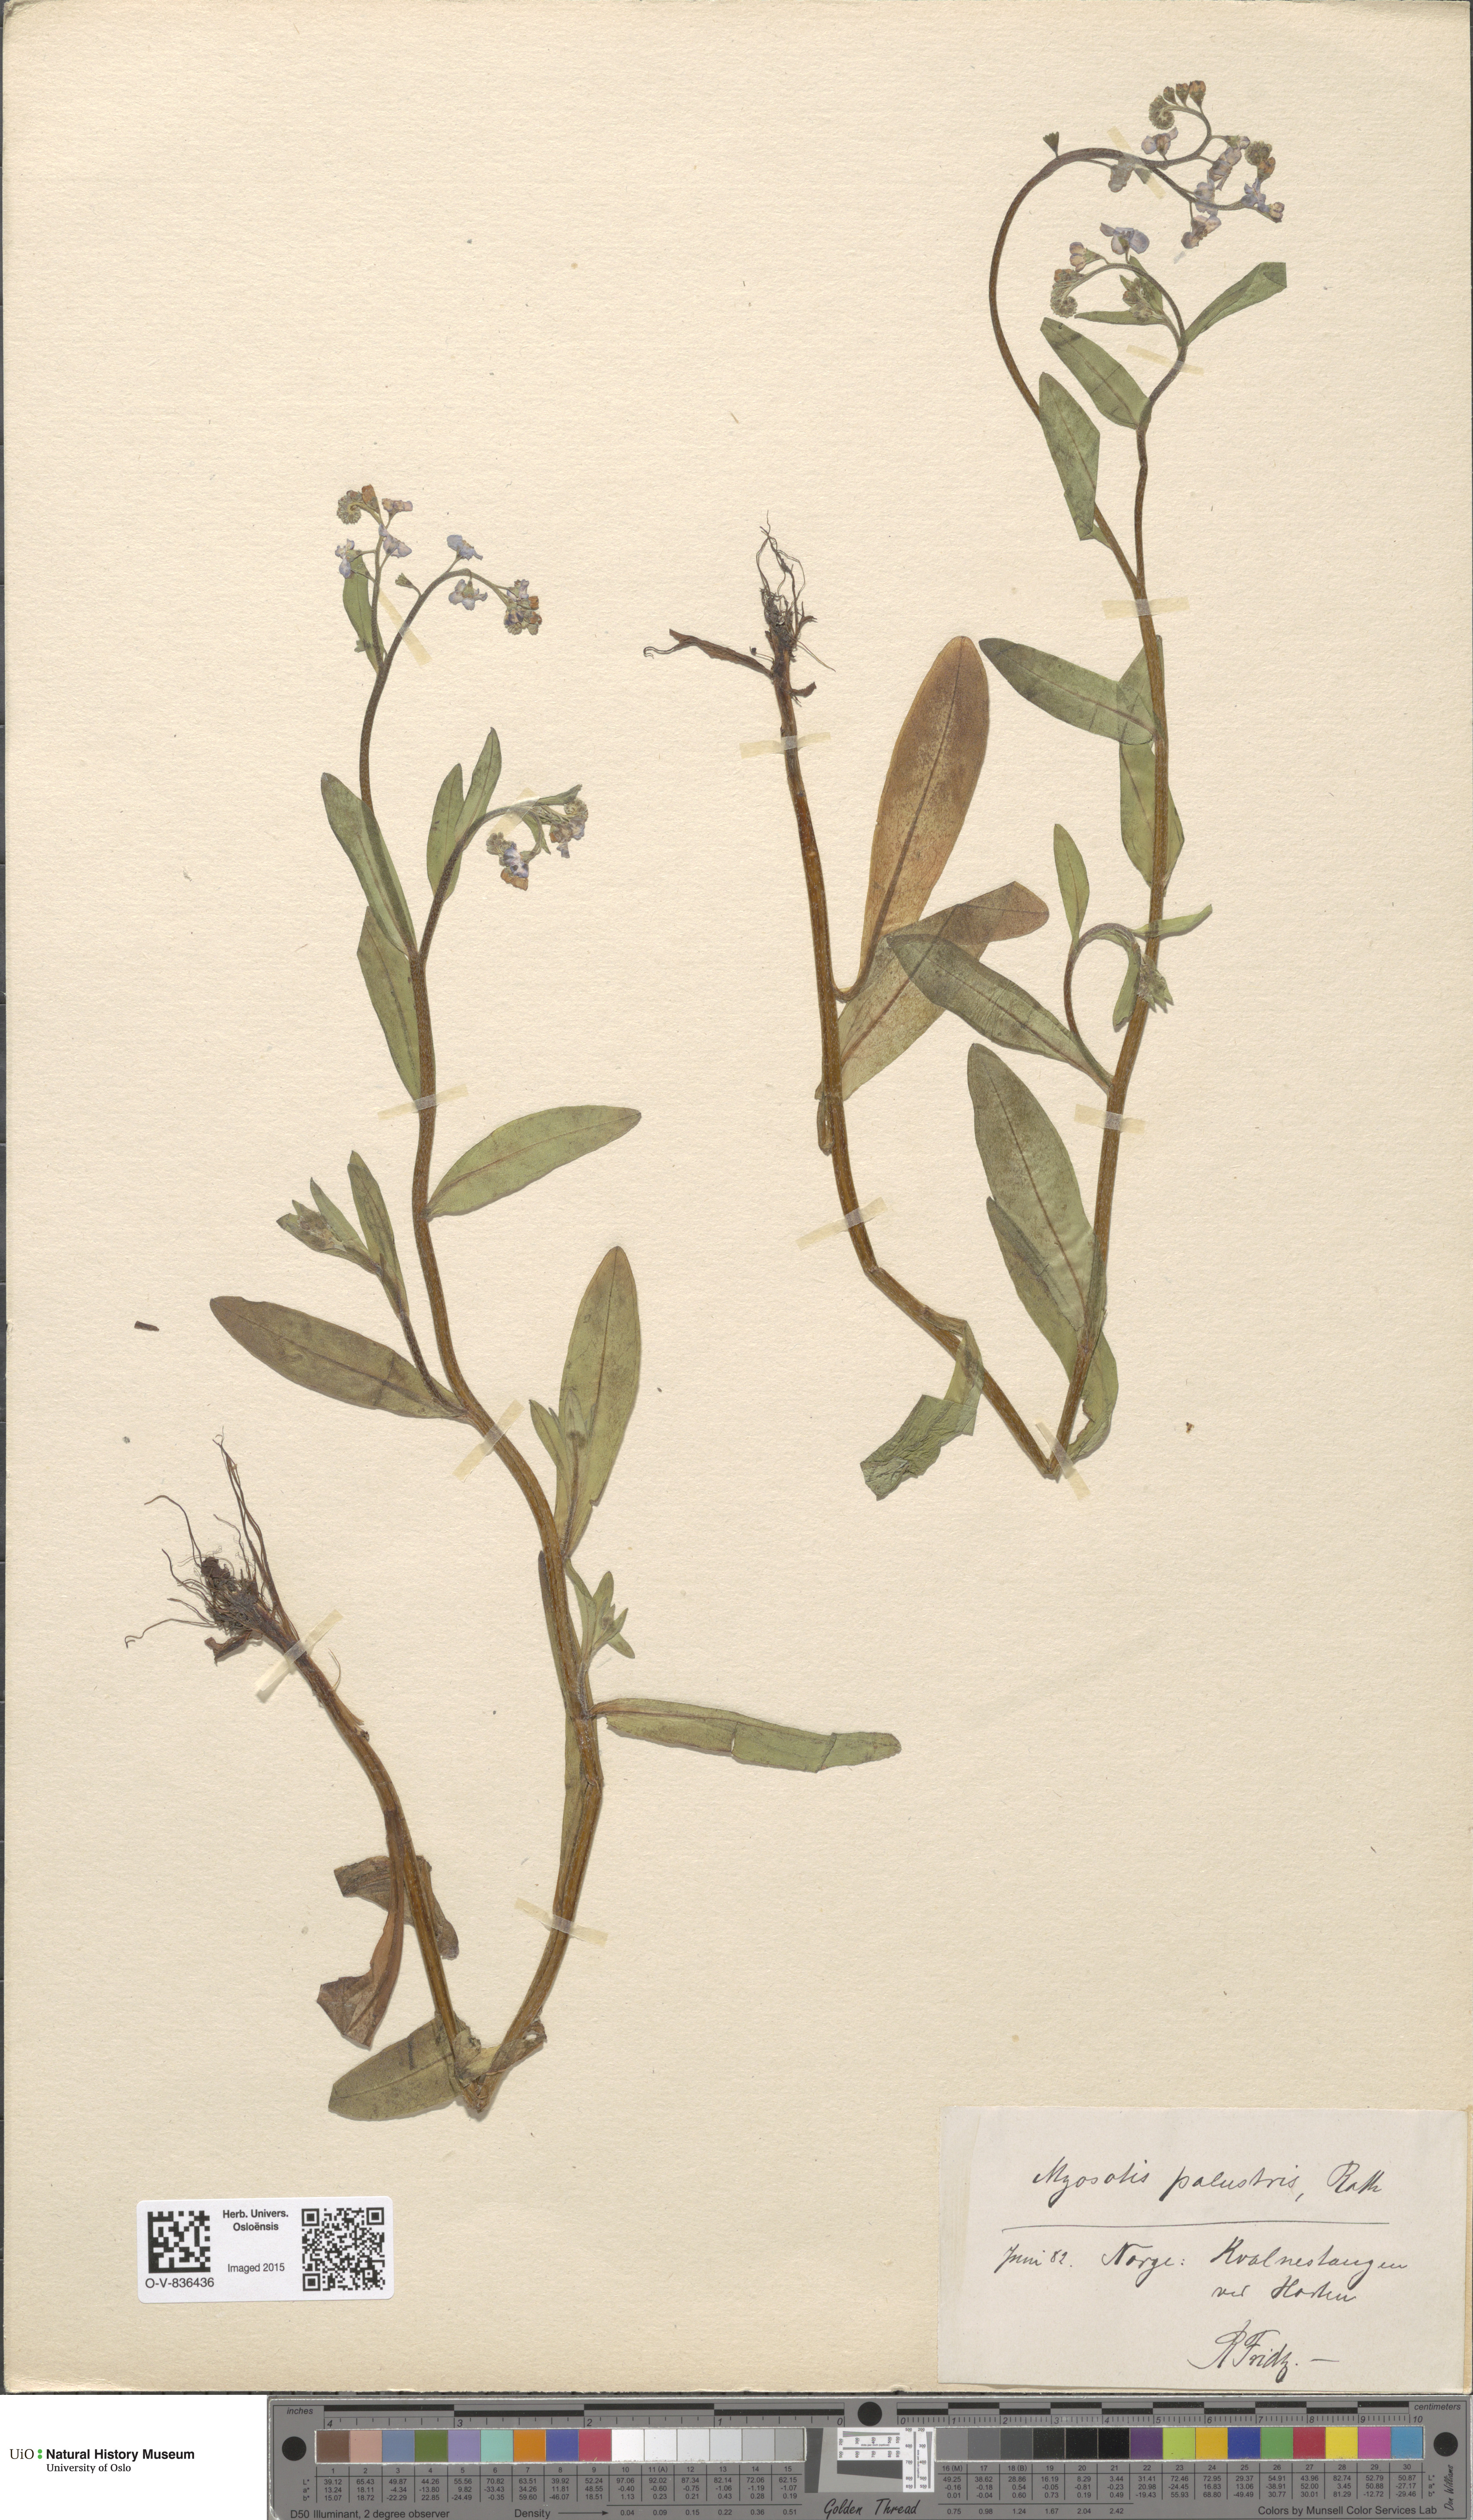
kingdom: Plantae
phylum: Tracheophyta
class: Magnoliopsida
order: Boraginales
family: Boraginaceae
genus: Myosotis
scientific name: Myosotis scorpioides
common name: Water forget-me-not
